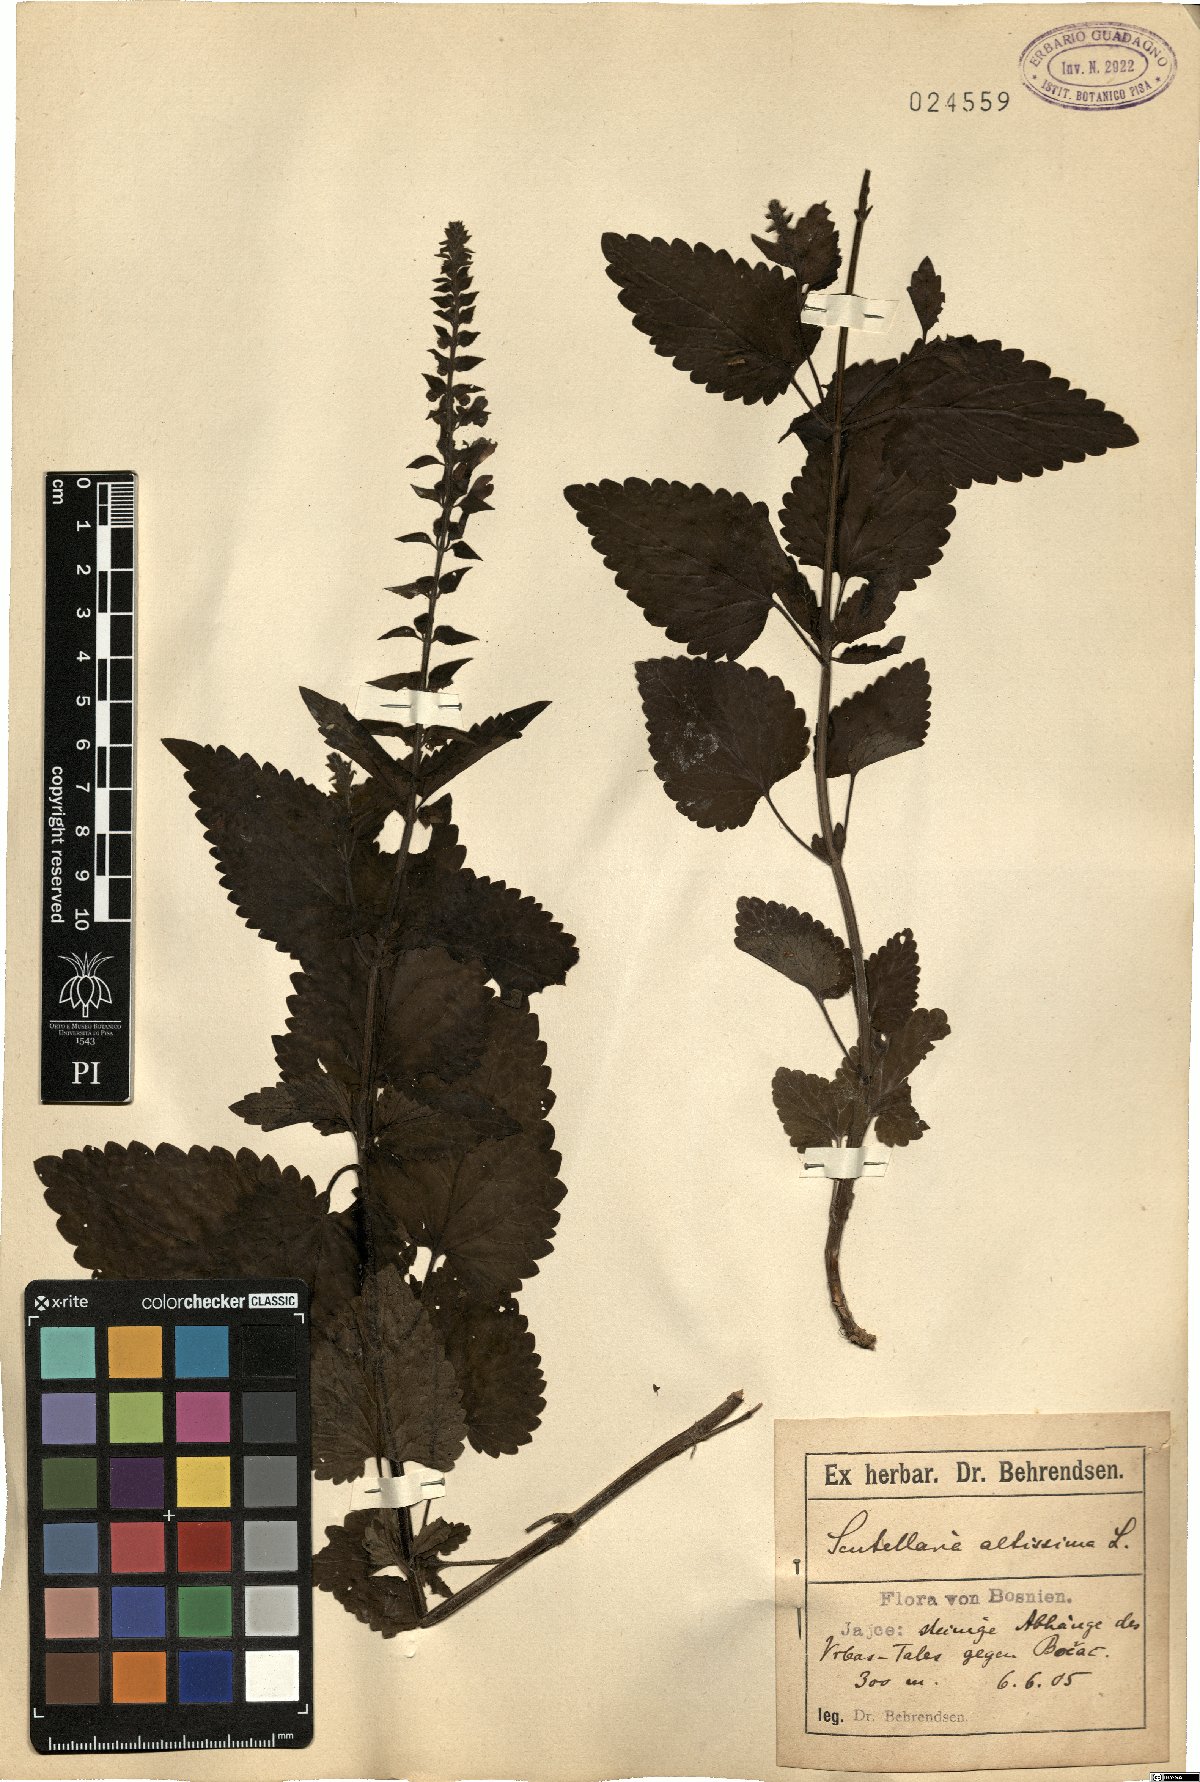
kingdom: Plantae
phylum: Tracheophyta
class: Magnoliopsida
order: Lamiales
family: Lamiaceae
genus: Scutellaria
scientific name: Scutellaria altissima
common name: Somerset skullcap
